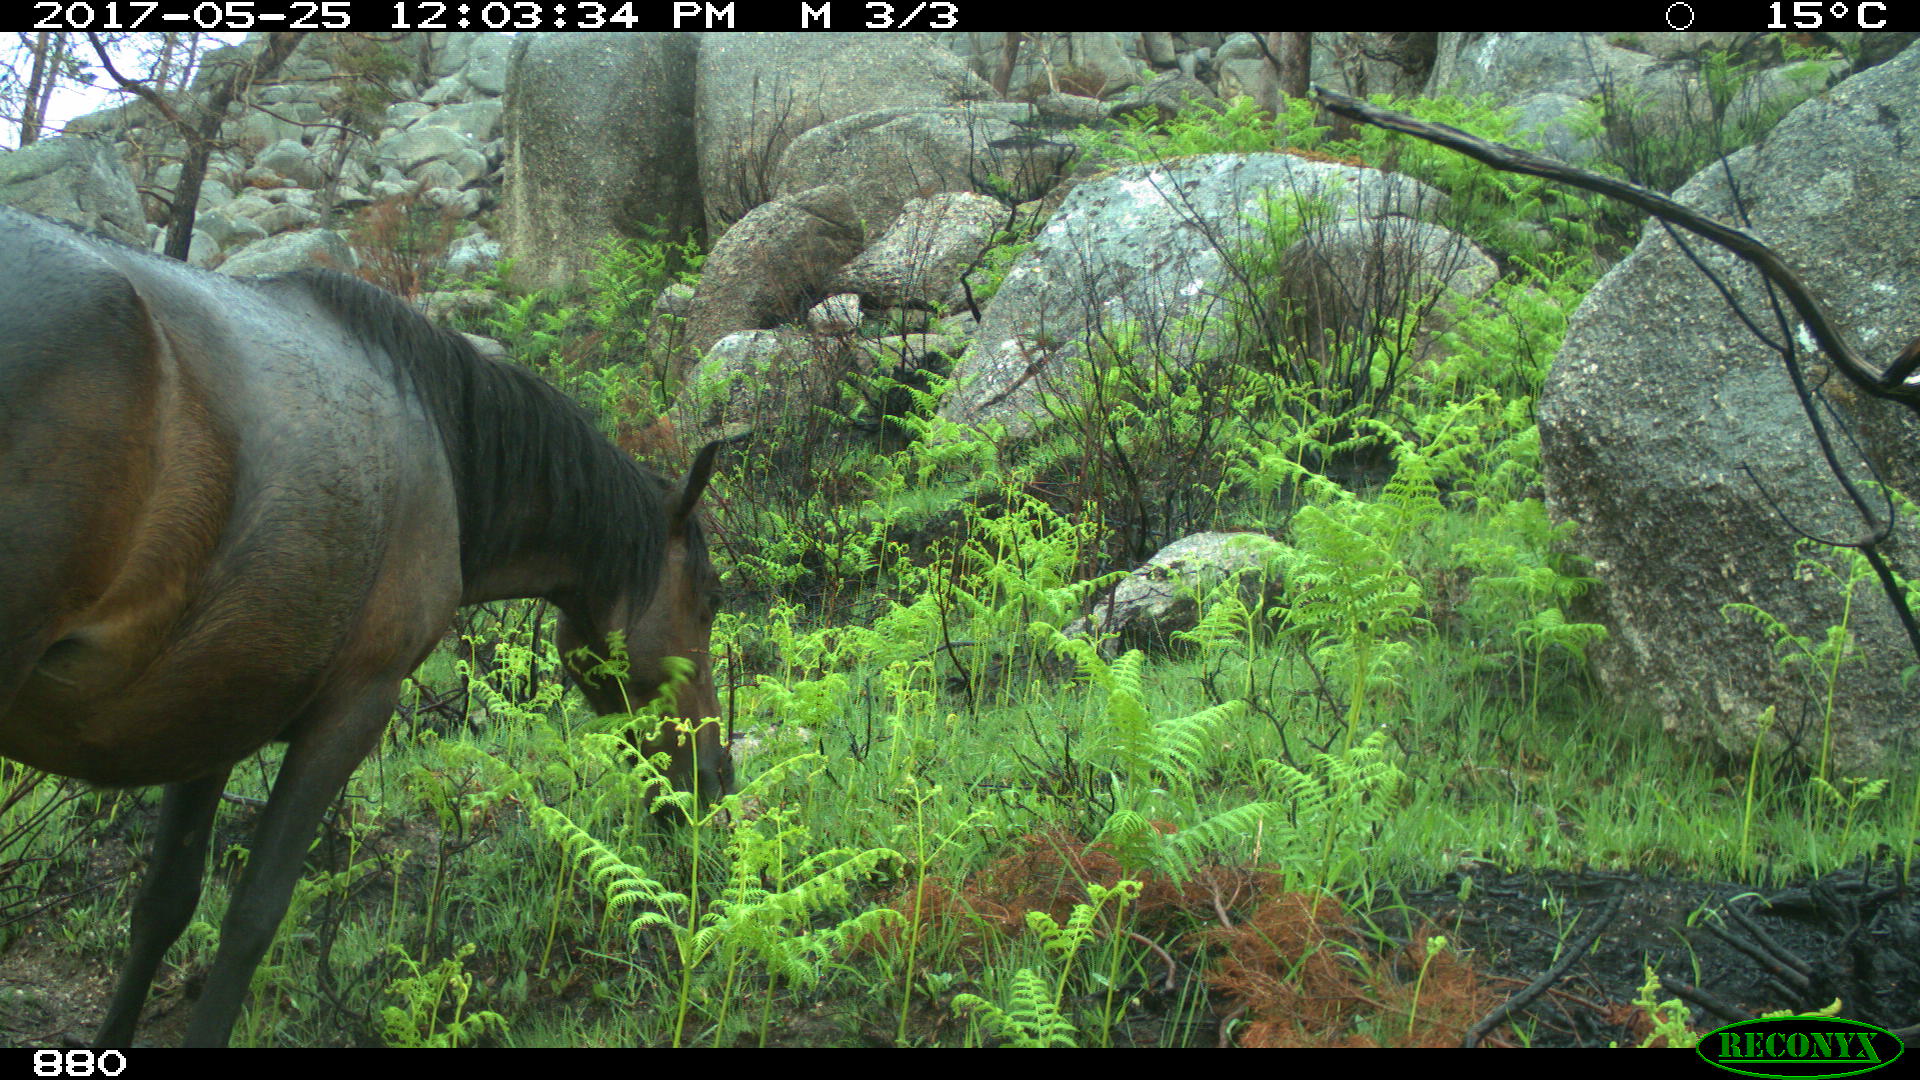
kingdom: Animalia
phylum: Chordata
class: Mammalia
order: Perissodactyla
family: Equidae
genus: Equus
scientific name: Equus caballus
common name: Horse
